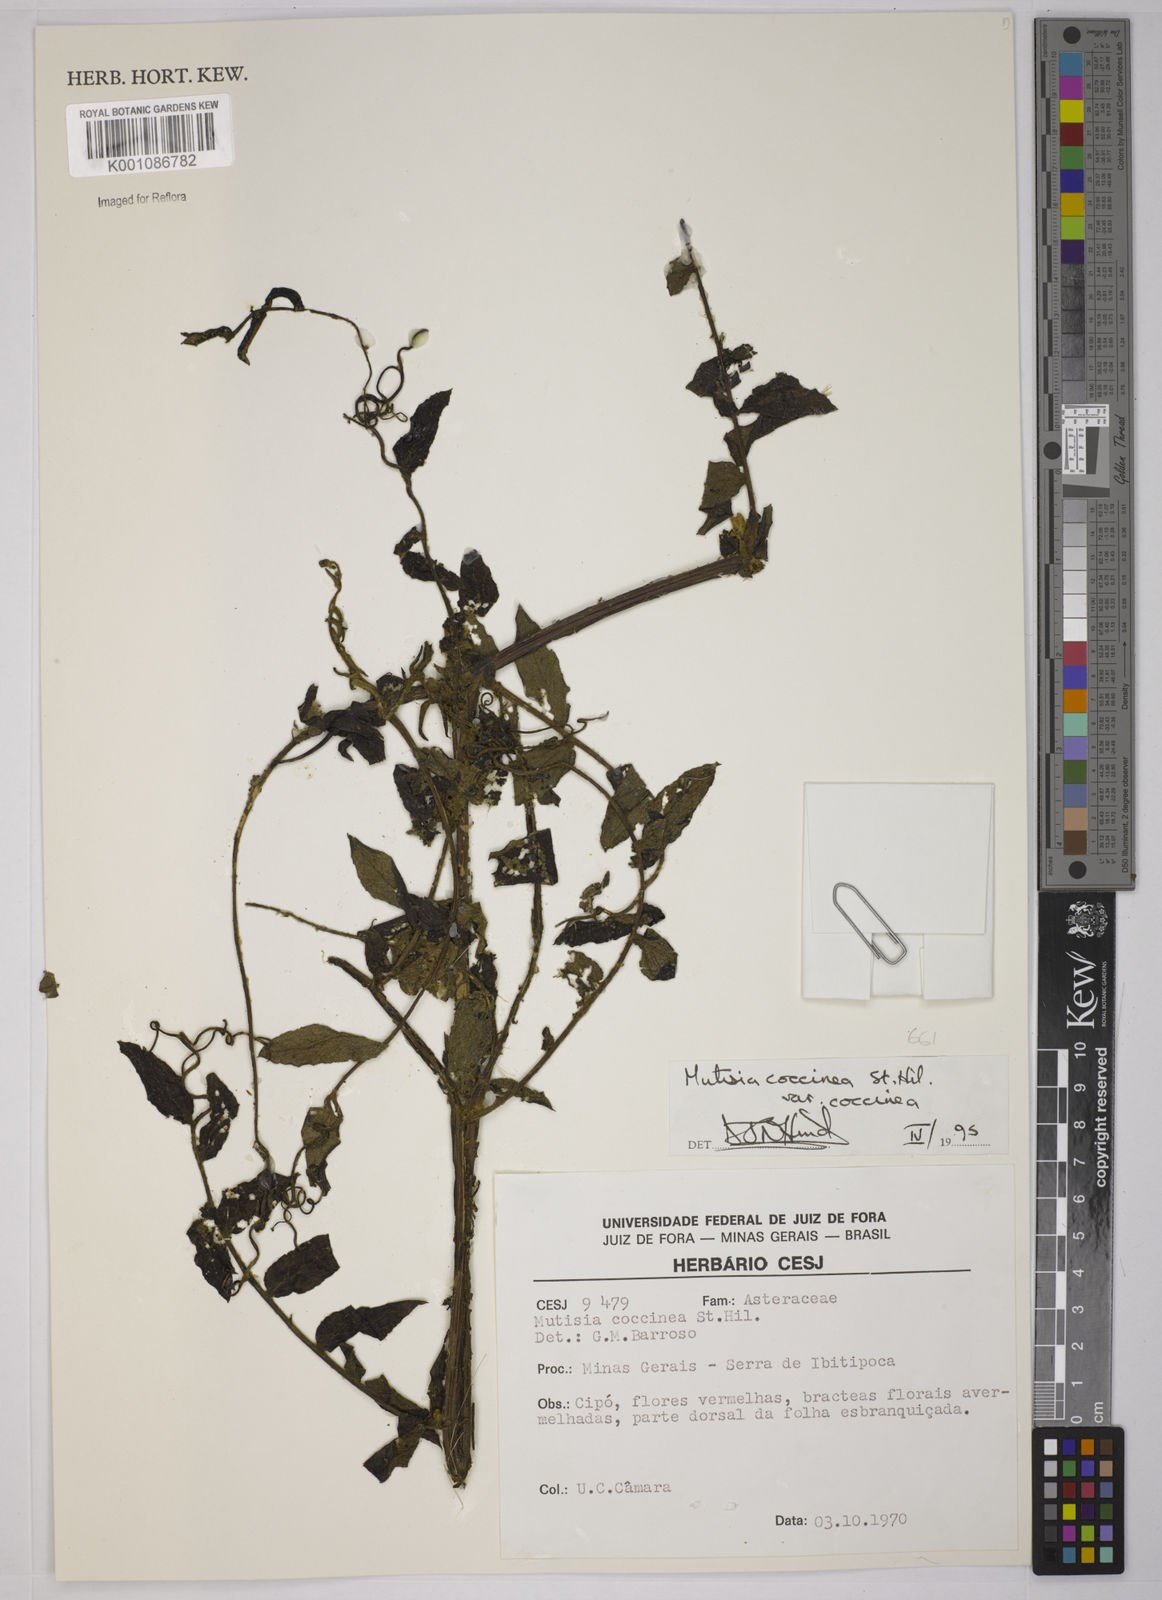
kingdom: Plantae
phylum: Tracheophyta
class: Magnoliopsida
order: Asterales
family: Asteraceae
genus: Mutisia
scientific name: Mutisia coccinea
